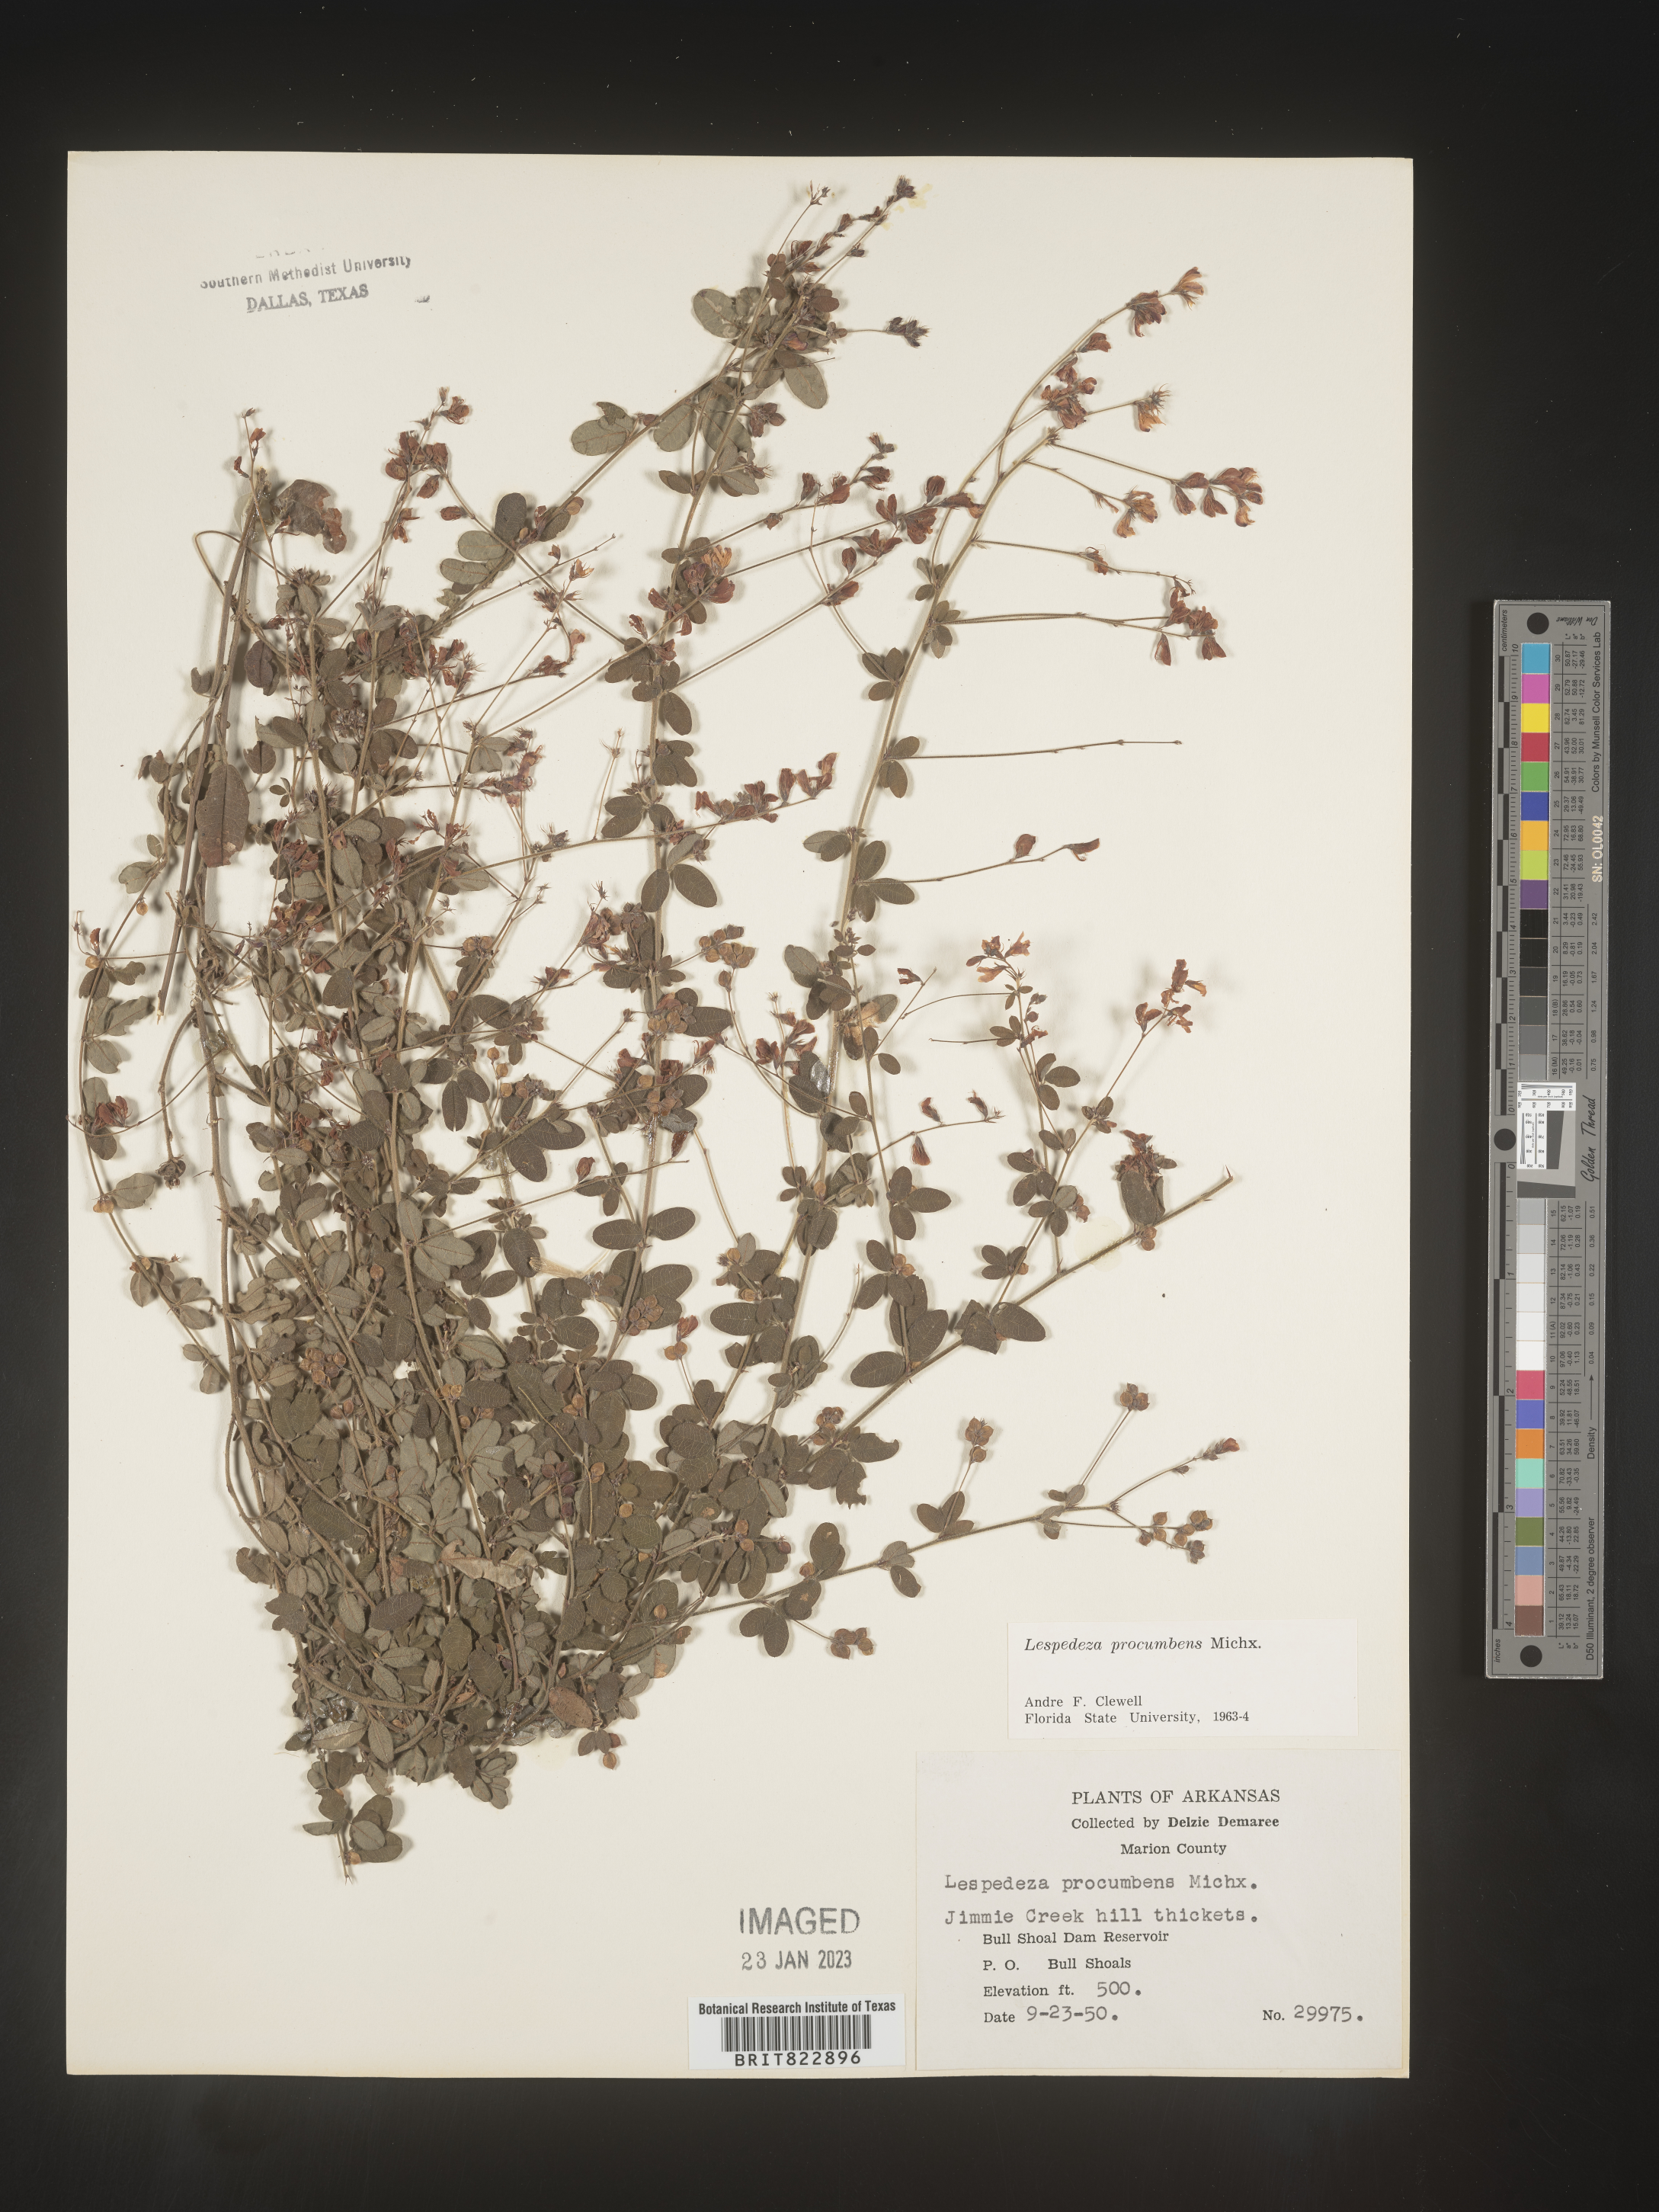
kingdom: Plantae
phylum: Tracheophyta
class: Magnoliopsida
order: Fabales
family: Fabaceae
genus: Lespedeza
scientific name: Lespedeza procumbens
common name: Downy trailing bush-clover
